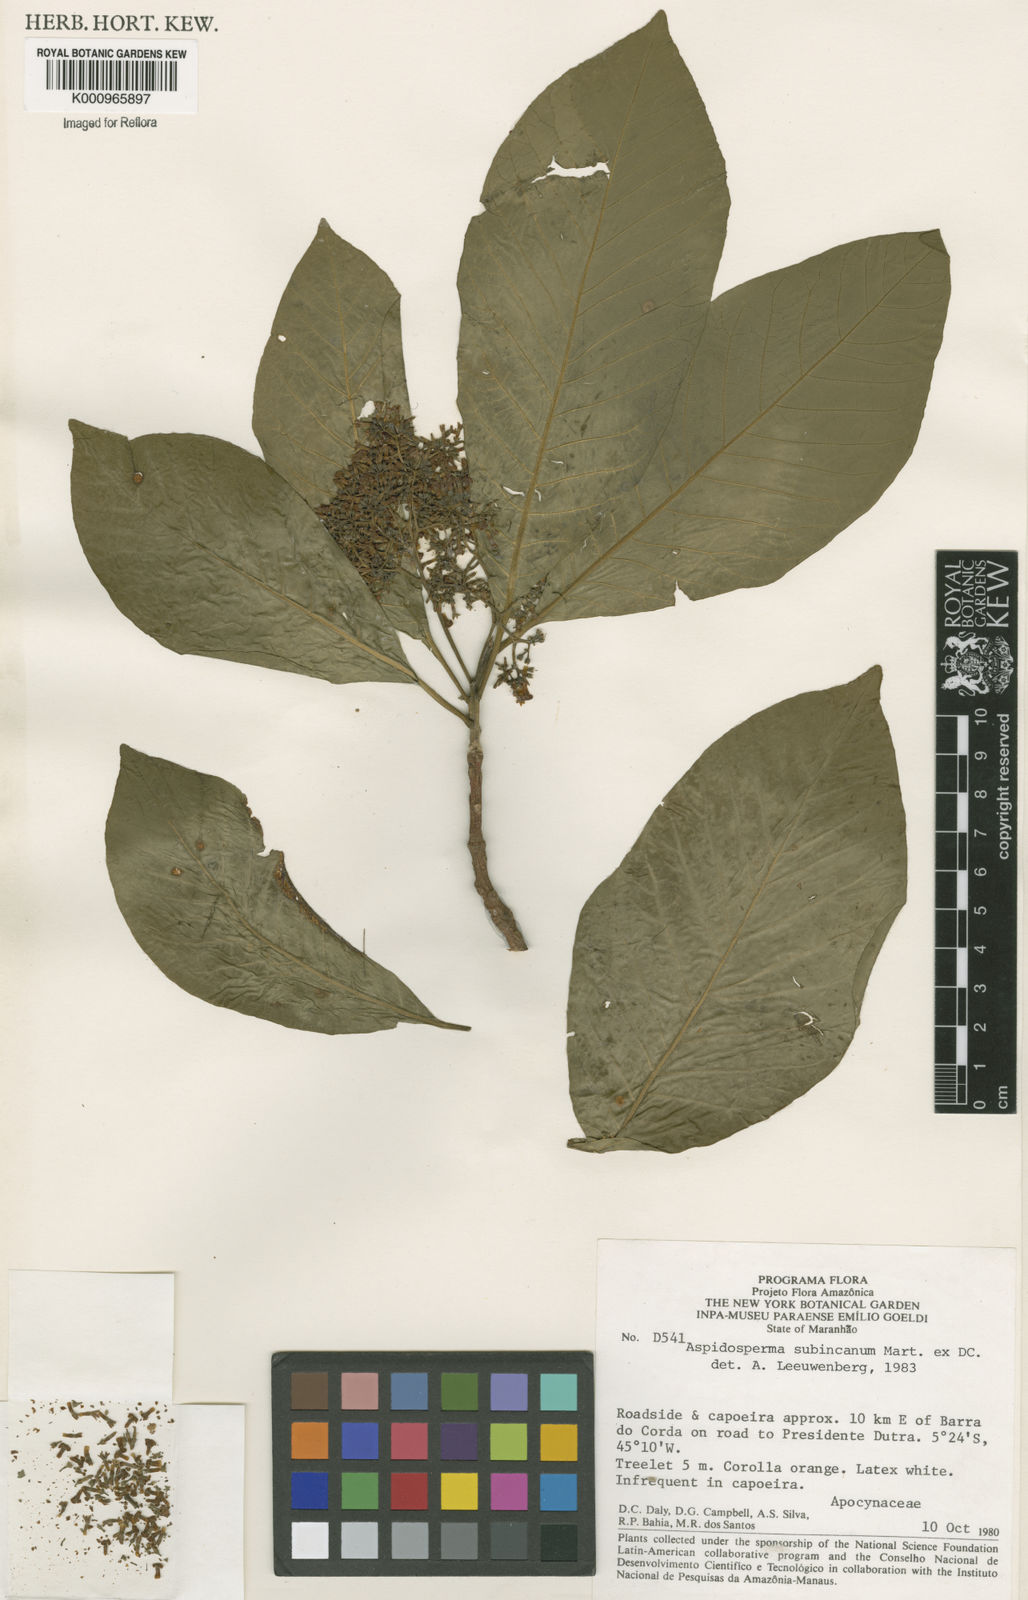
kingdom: Plantae
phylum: Tracheophyta
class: Magnoliopsida
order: Gentianales
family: Apocynaceae
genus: Aspidosperma
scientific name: Aspidosperma subincanum
